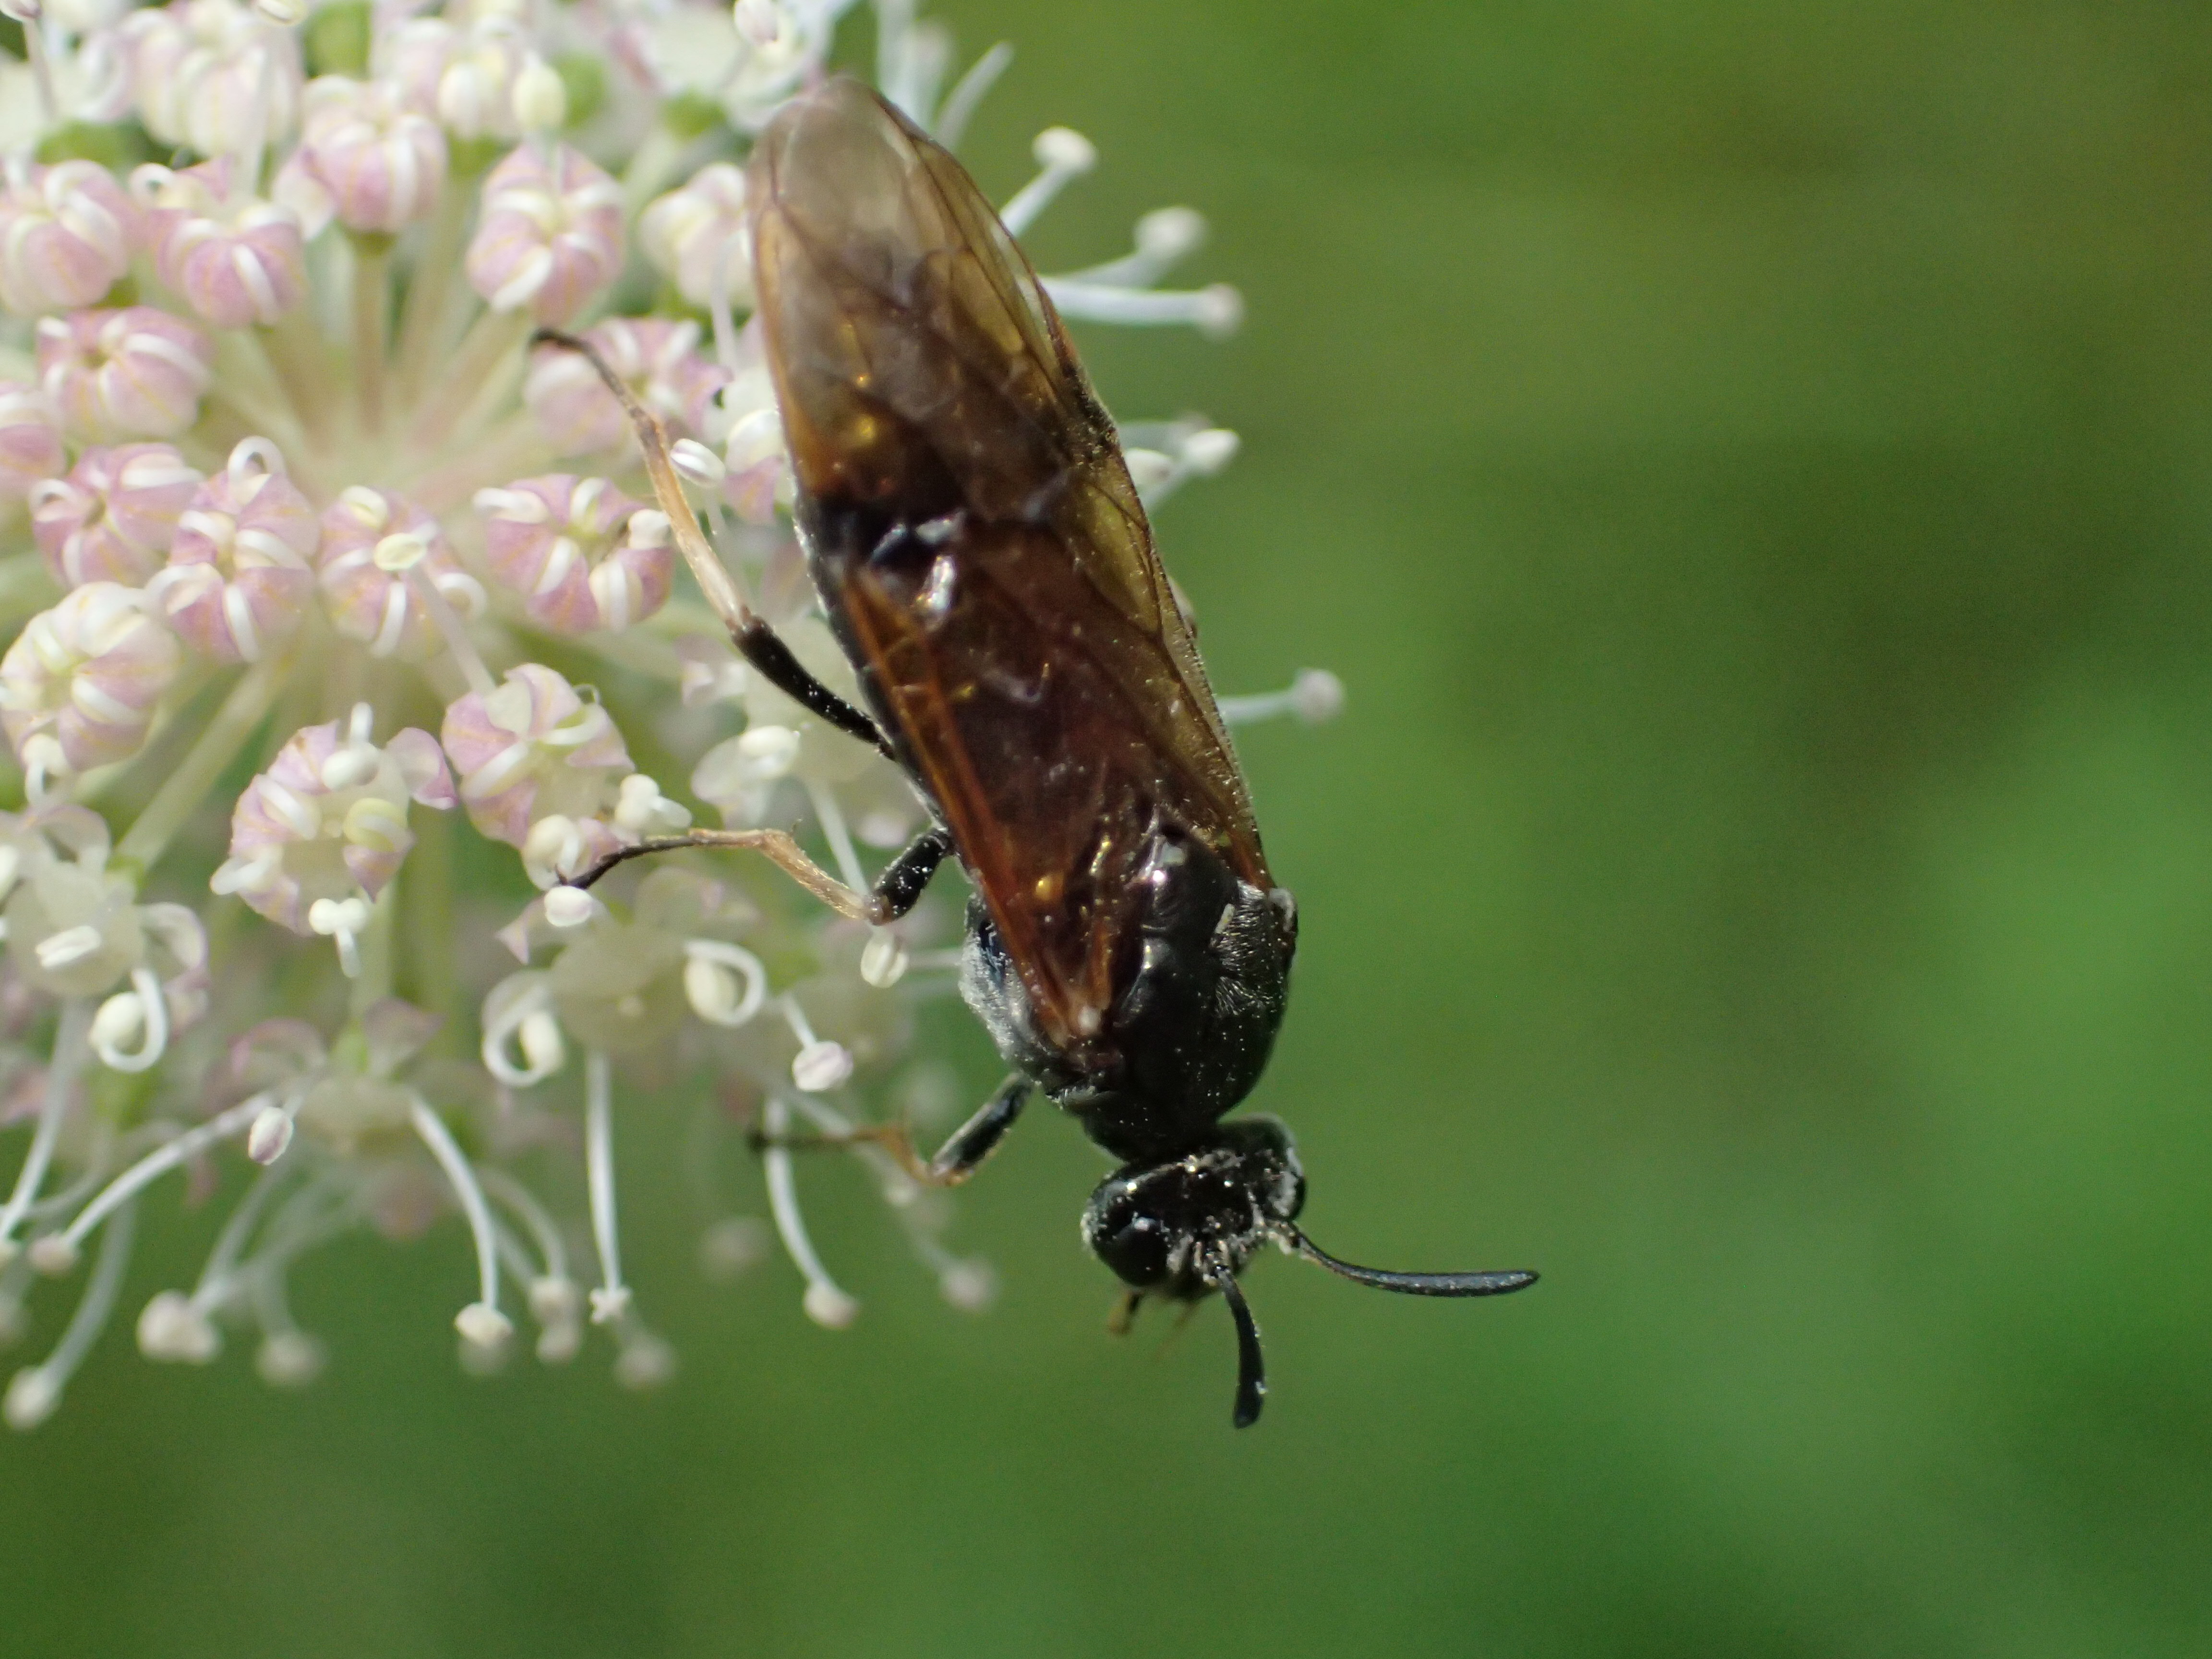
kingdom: Animalia
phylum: Arthropoda
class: Insecta
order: Hymenoptera
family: Argidae
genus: Arge
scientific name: Arge dimidiata
